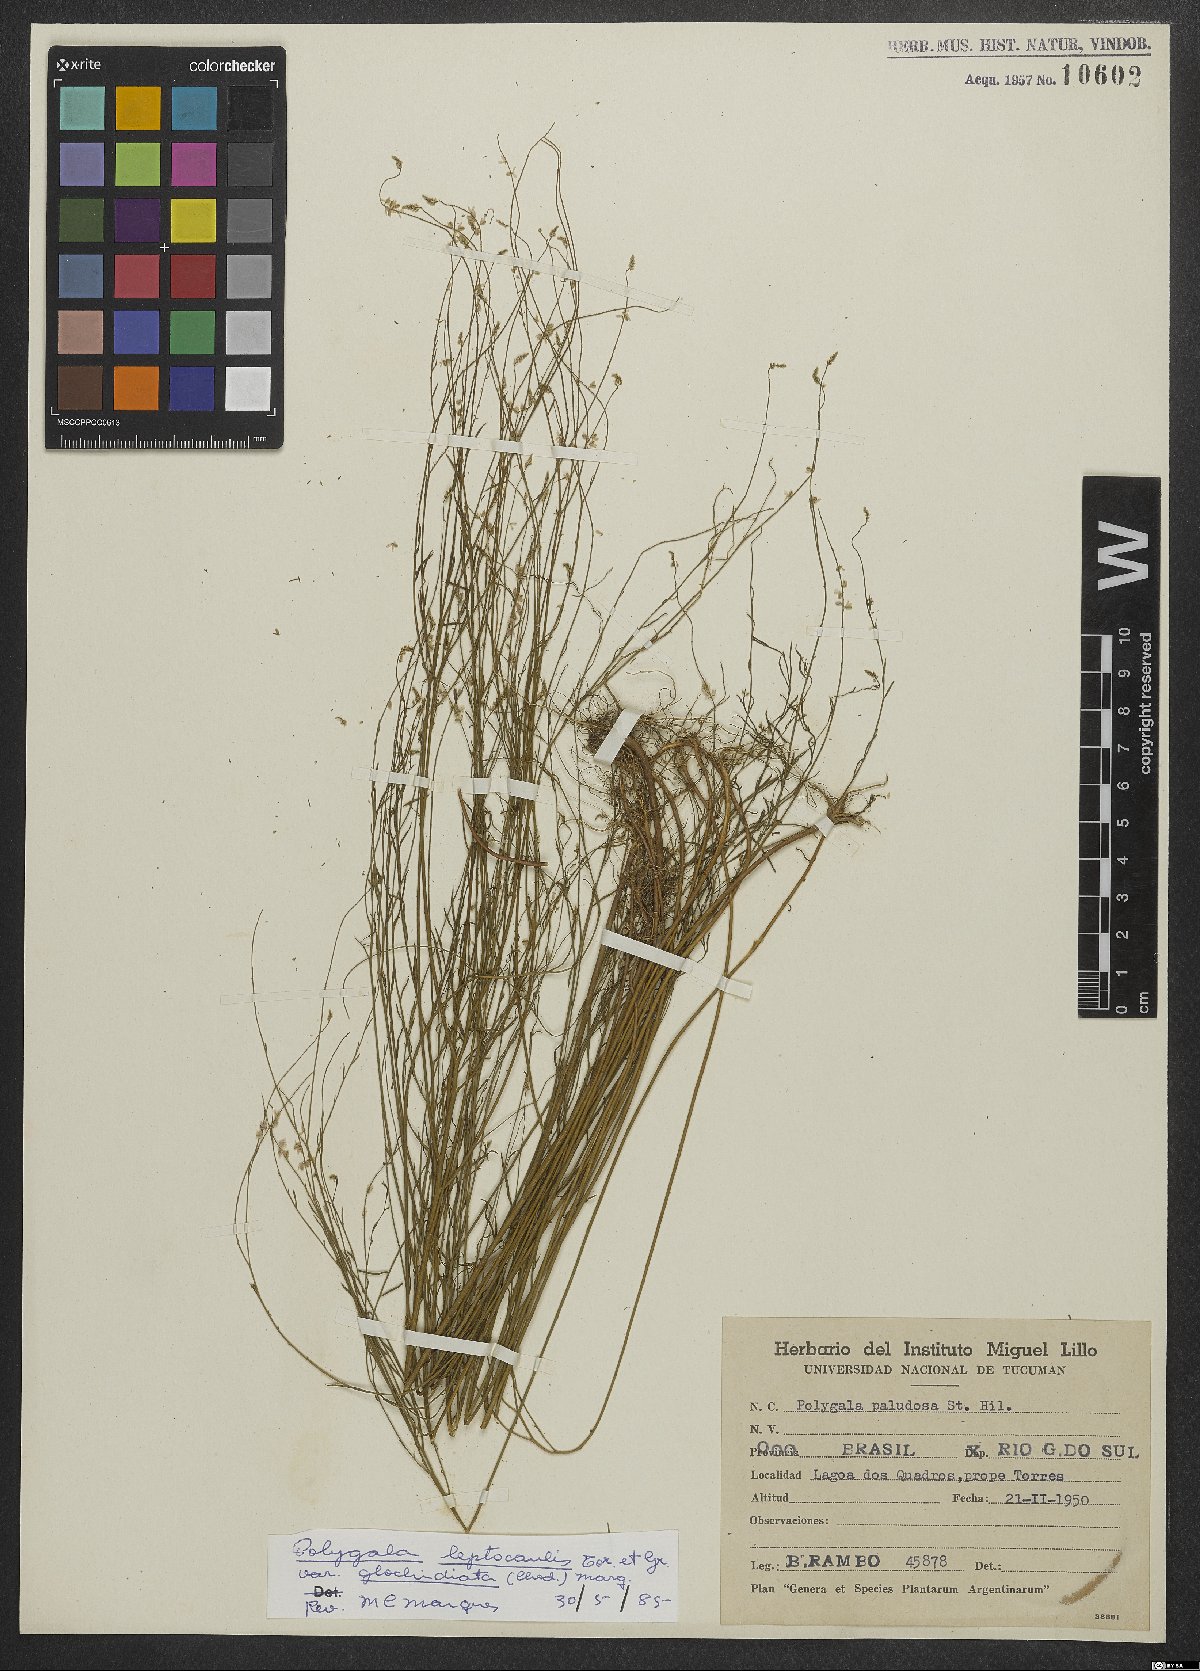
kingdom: Plantae
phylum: Tracheophyta
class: Magnoliopsida
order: Fabales
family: Polygalaceae
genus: Polygala
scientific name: Polygala tenella
